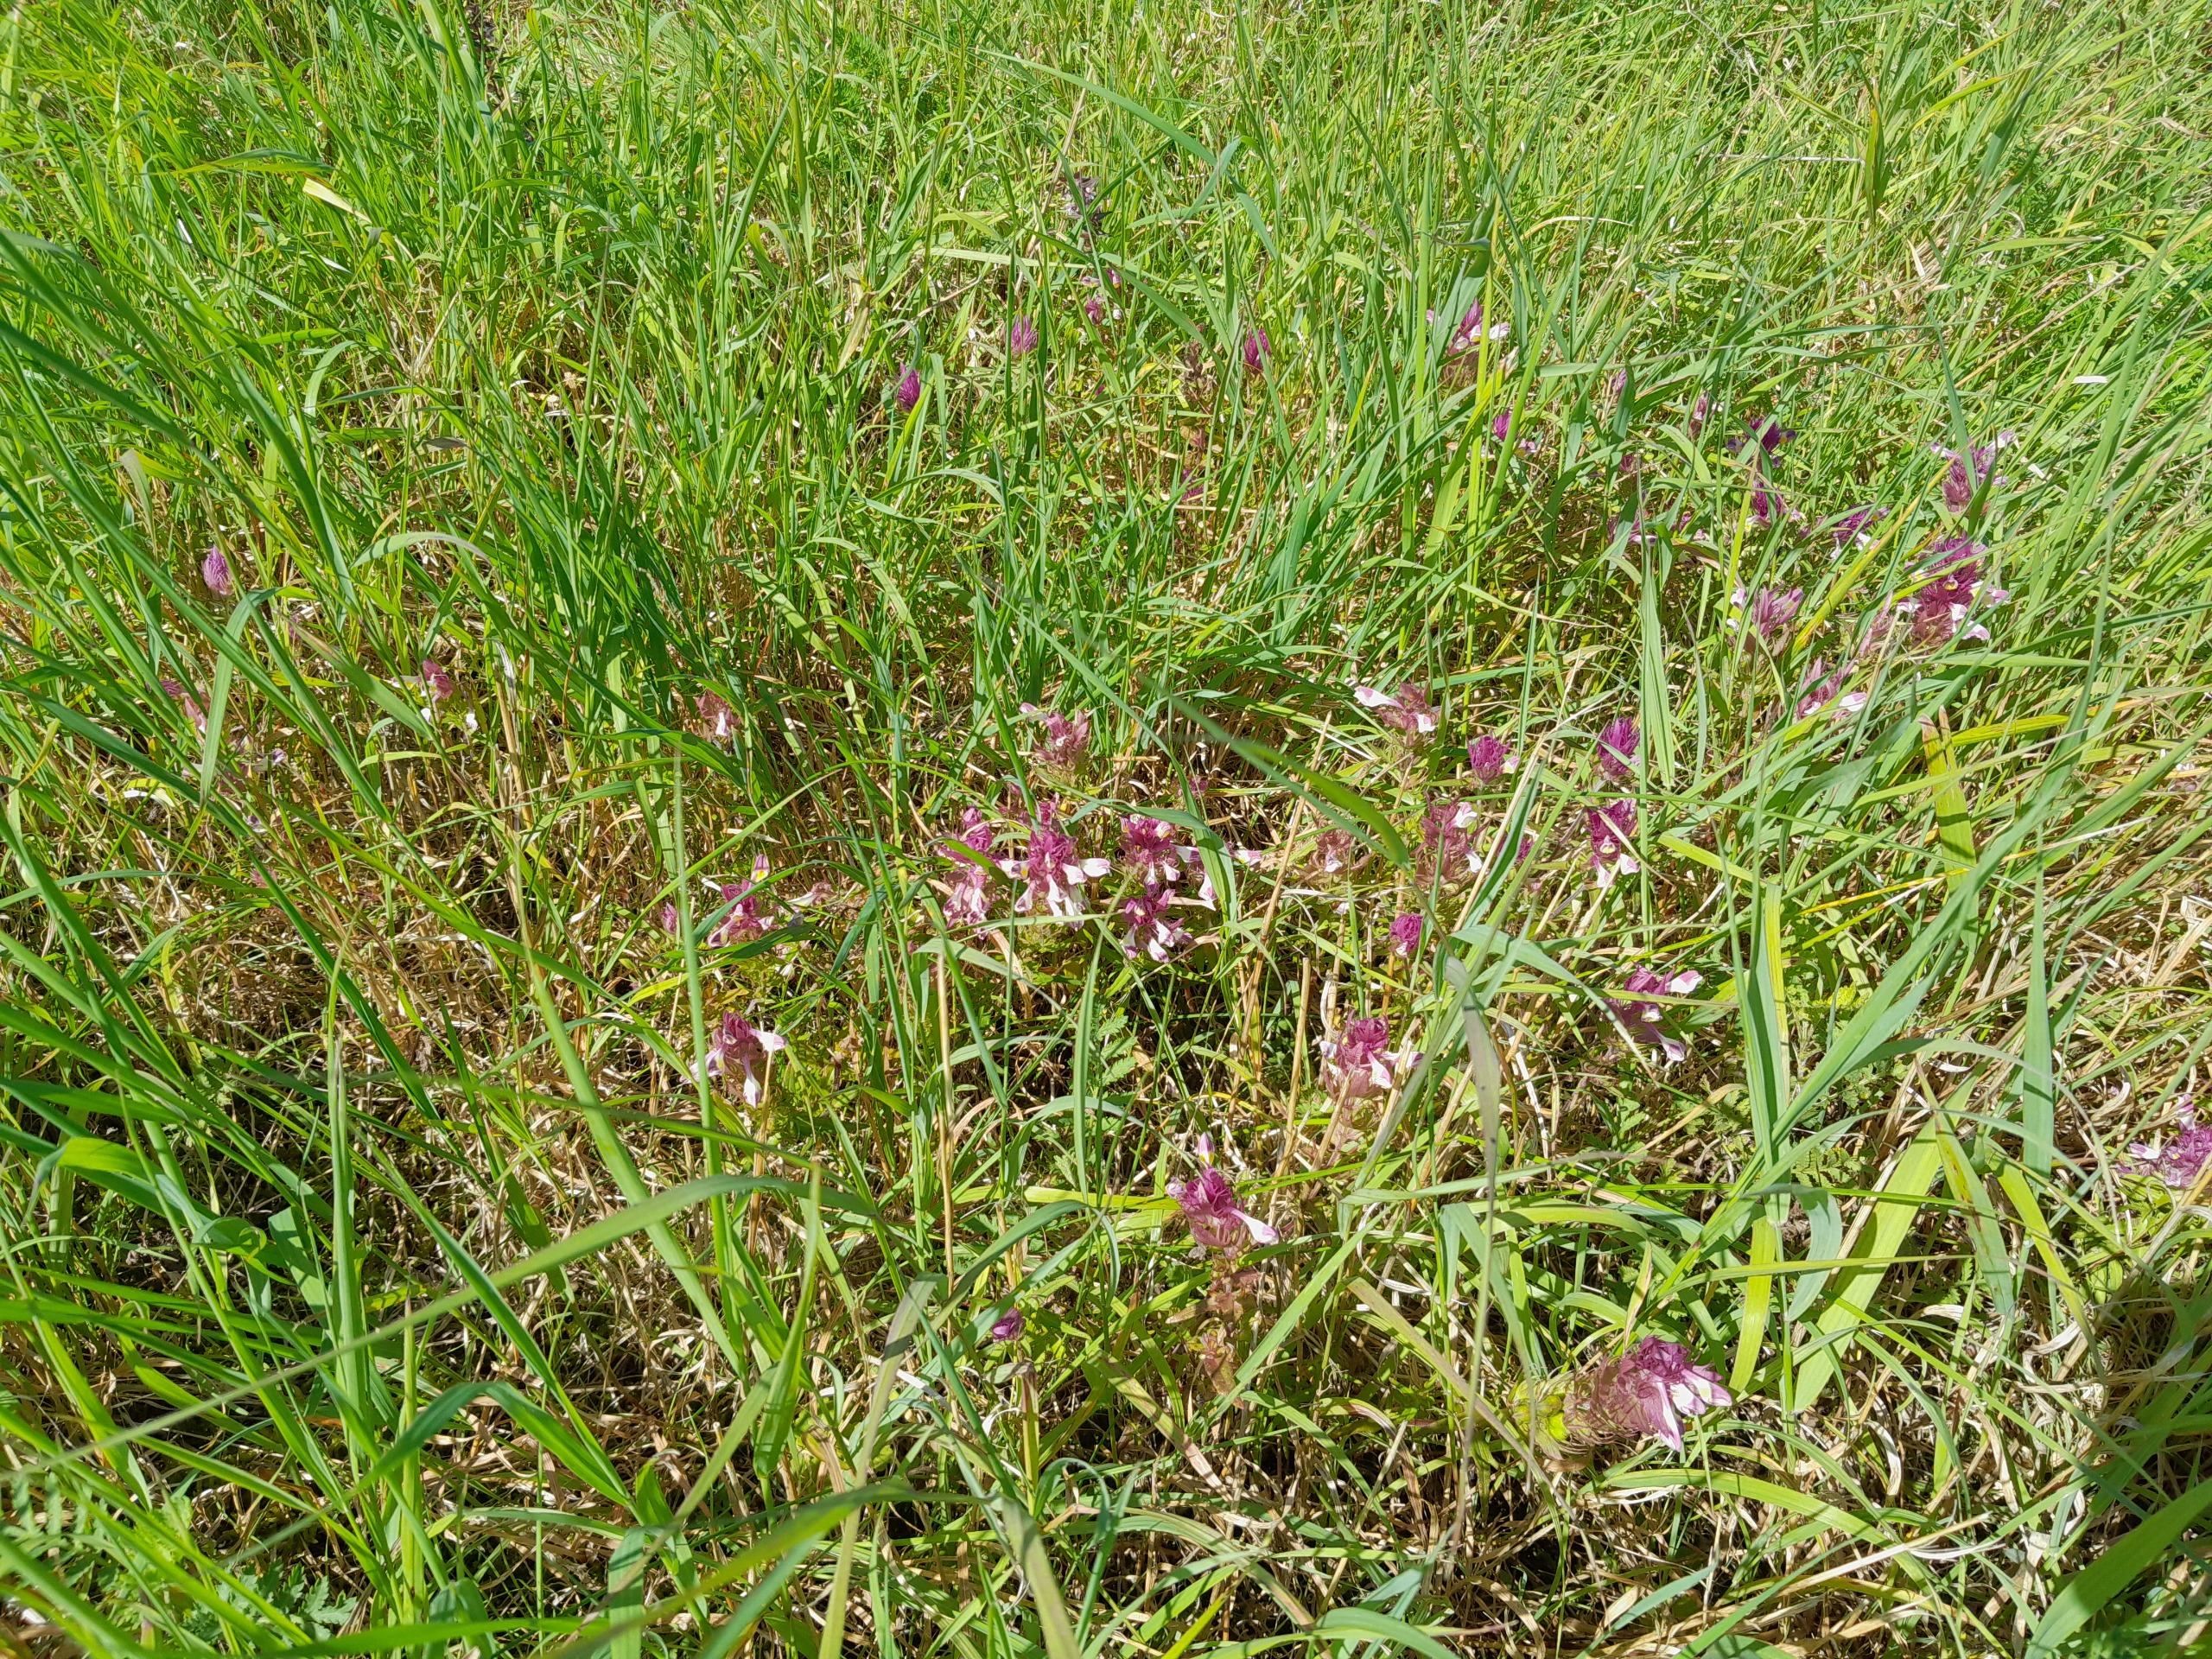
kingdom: Plantae
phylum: Tracheophyta
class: Magnoliopsida
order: Lamiales
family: Orobanchaceae
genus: Melampyrum
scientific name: Melampyrum arvense
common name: Ager-kohvede
